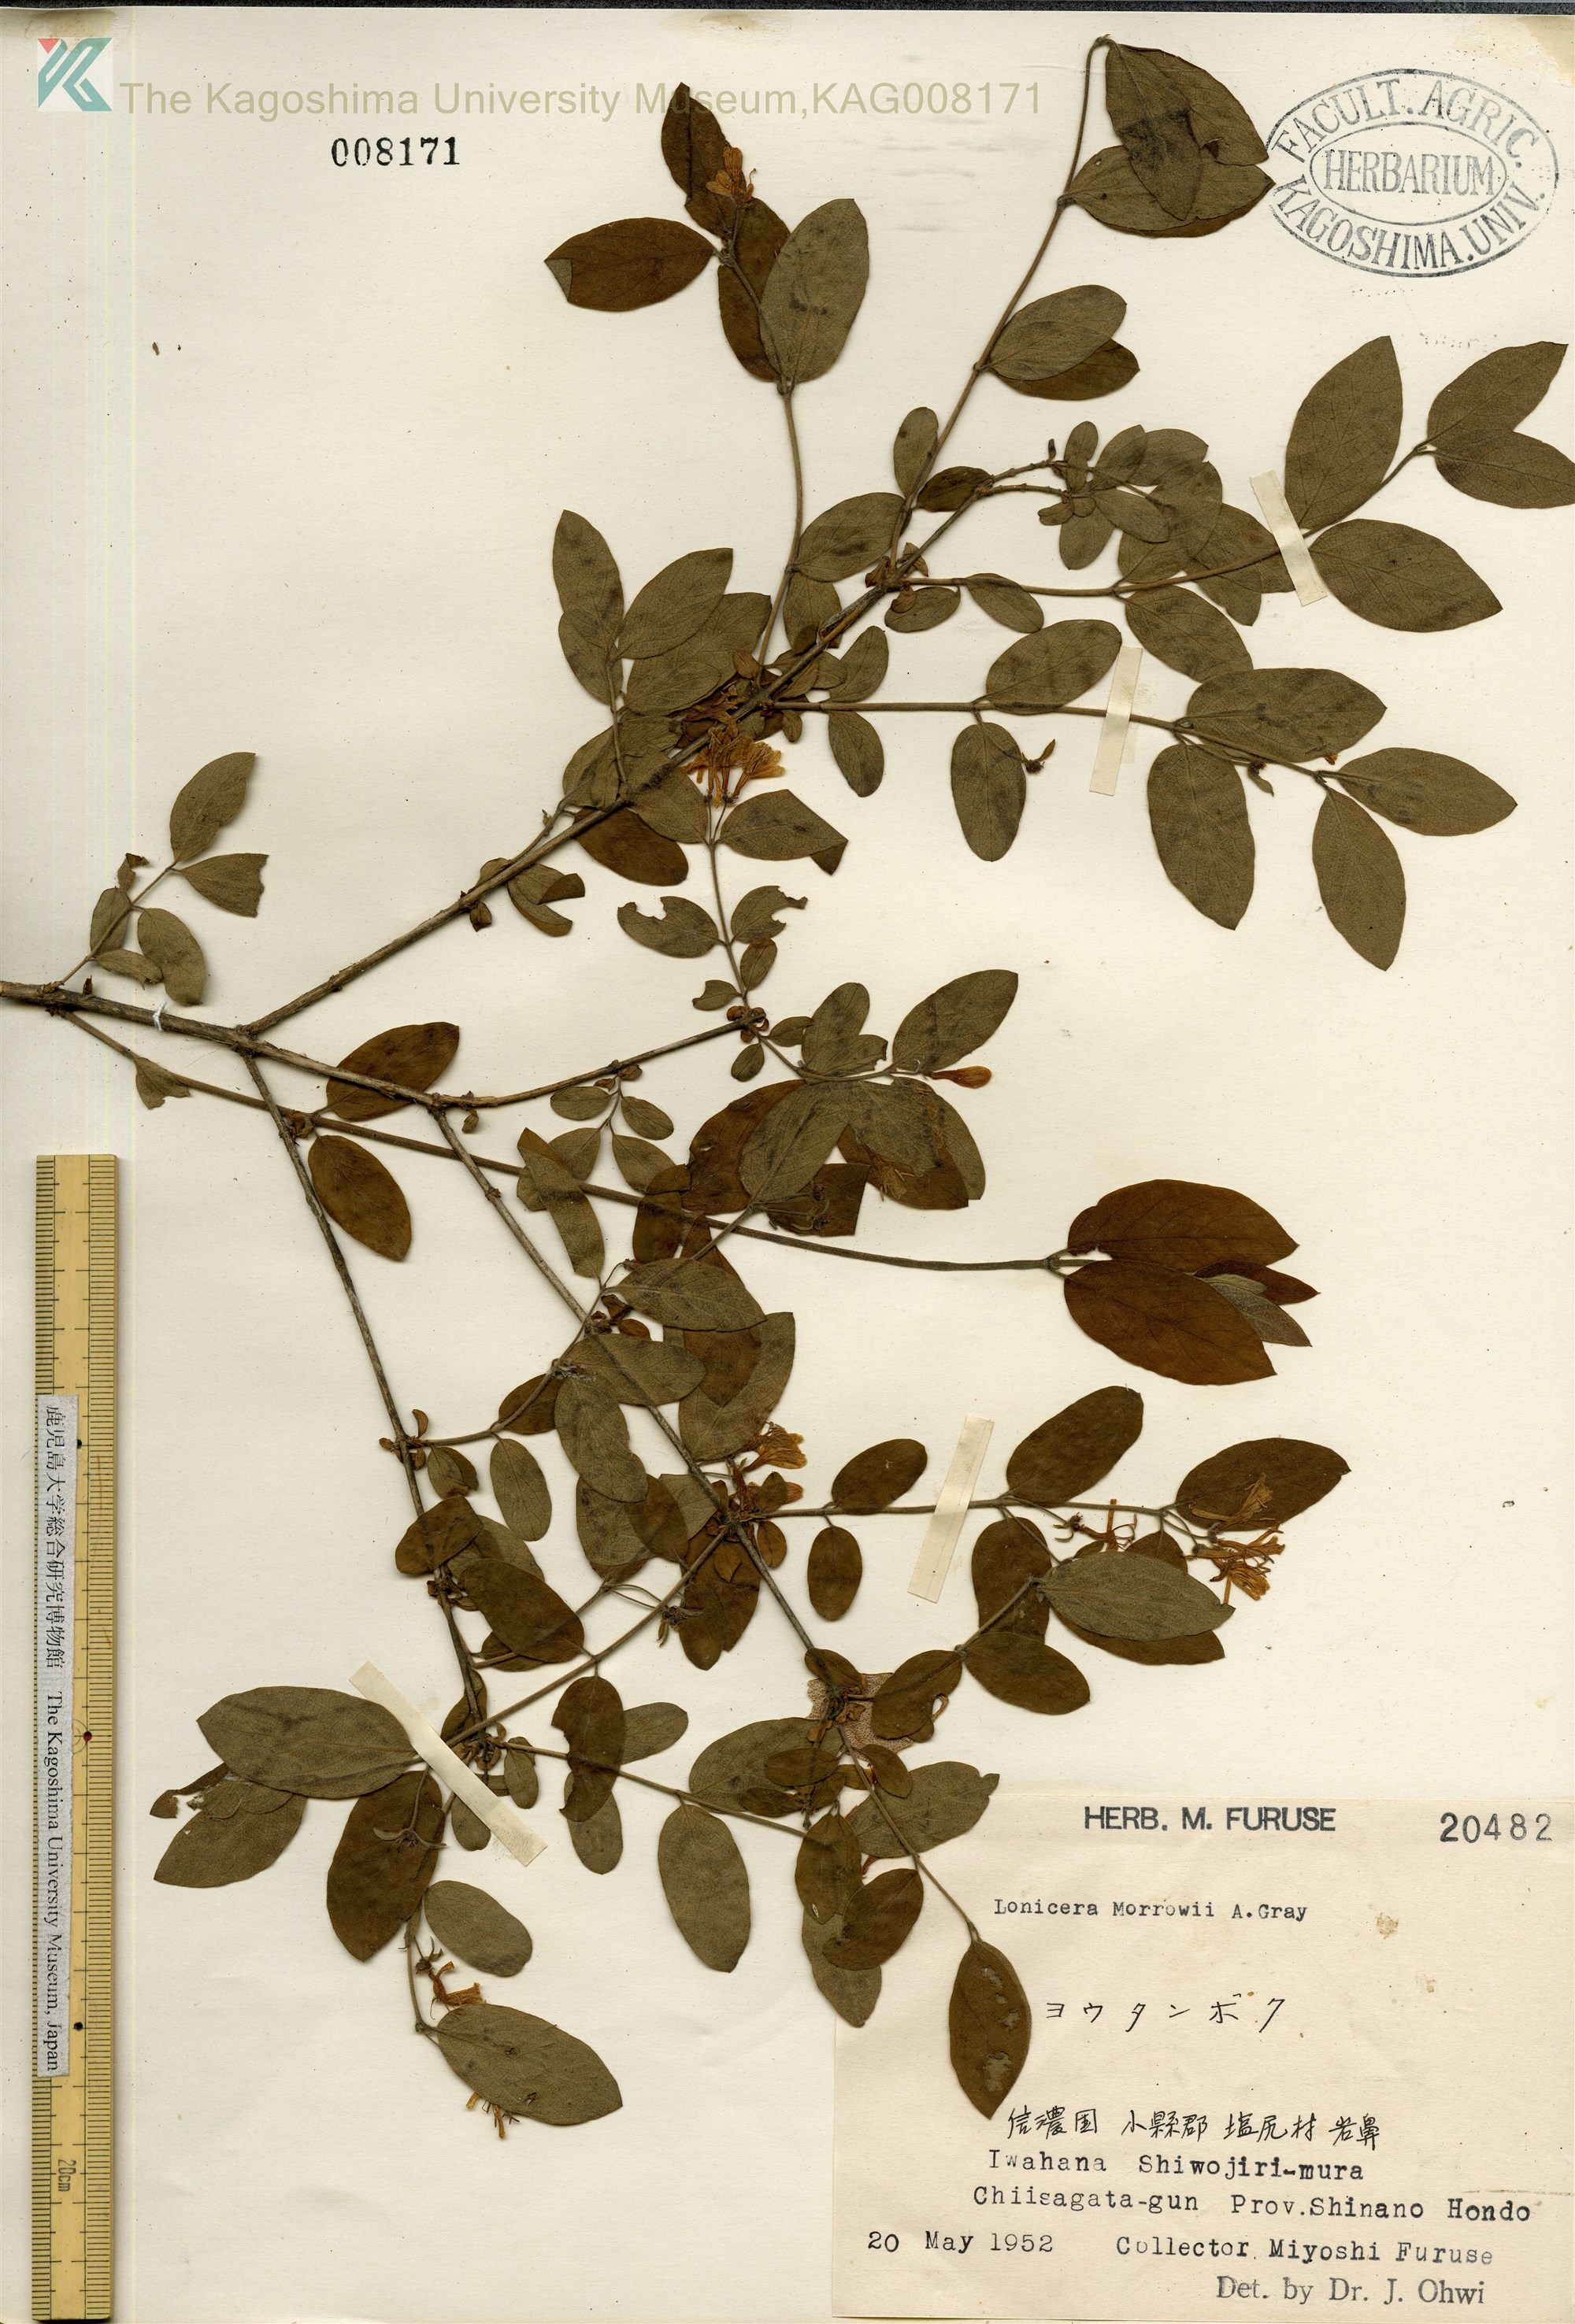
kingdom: Plantae
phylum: Tracheophyta
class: Magnoliopsida
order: Dipsacales
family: Caprifoliaceae
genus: Lonicera
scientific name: Lonicera morrowii
